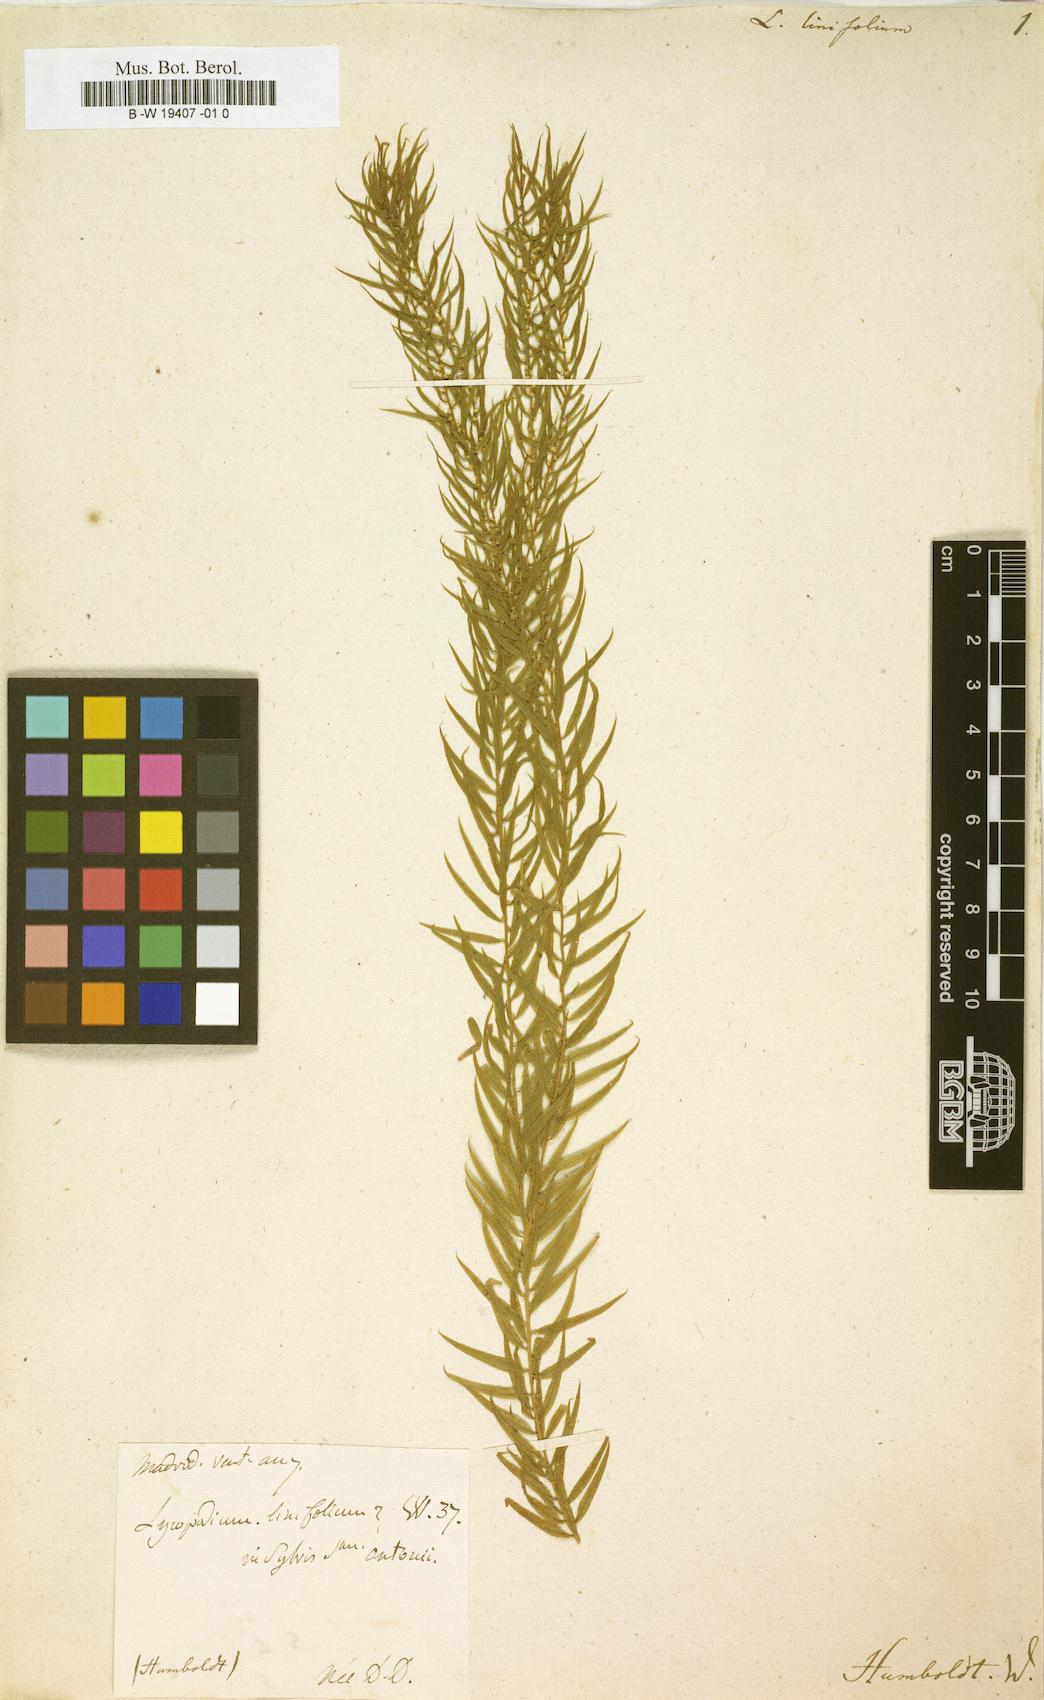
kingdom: Plantae
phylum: Tracheophyta
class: Lycopodiopsida
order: Lycopodiales
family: Lycopodiaceae
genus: Phlegmariurus
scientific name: Phlegmariurus
